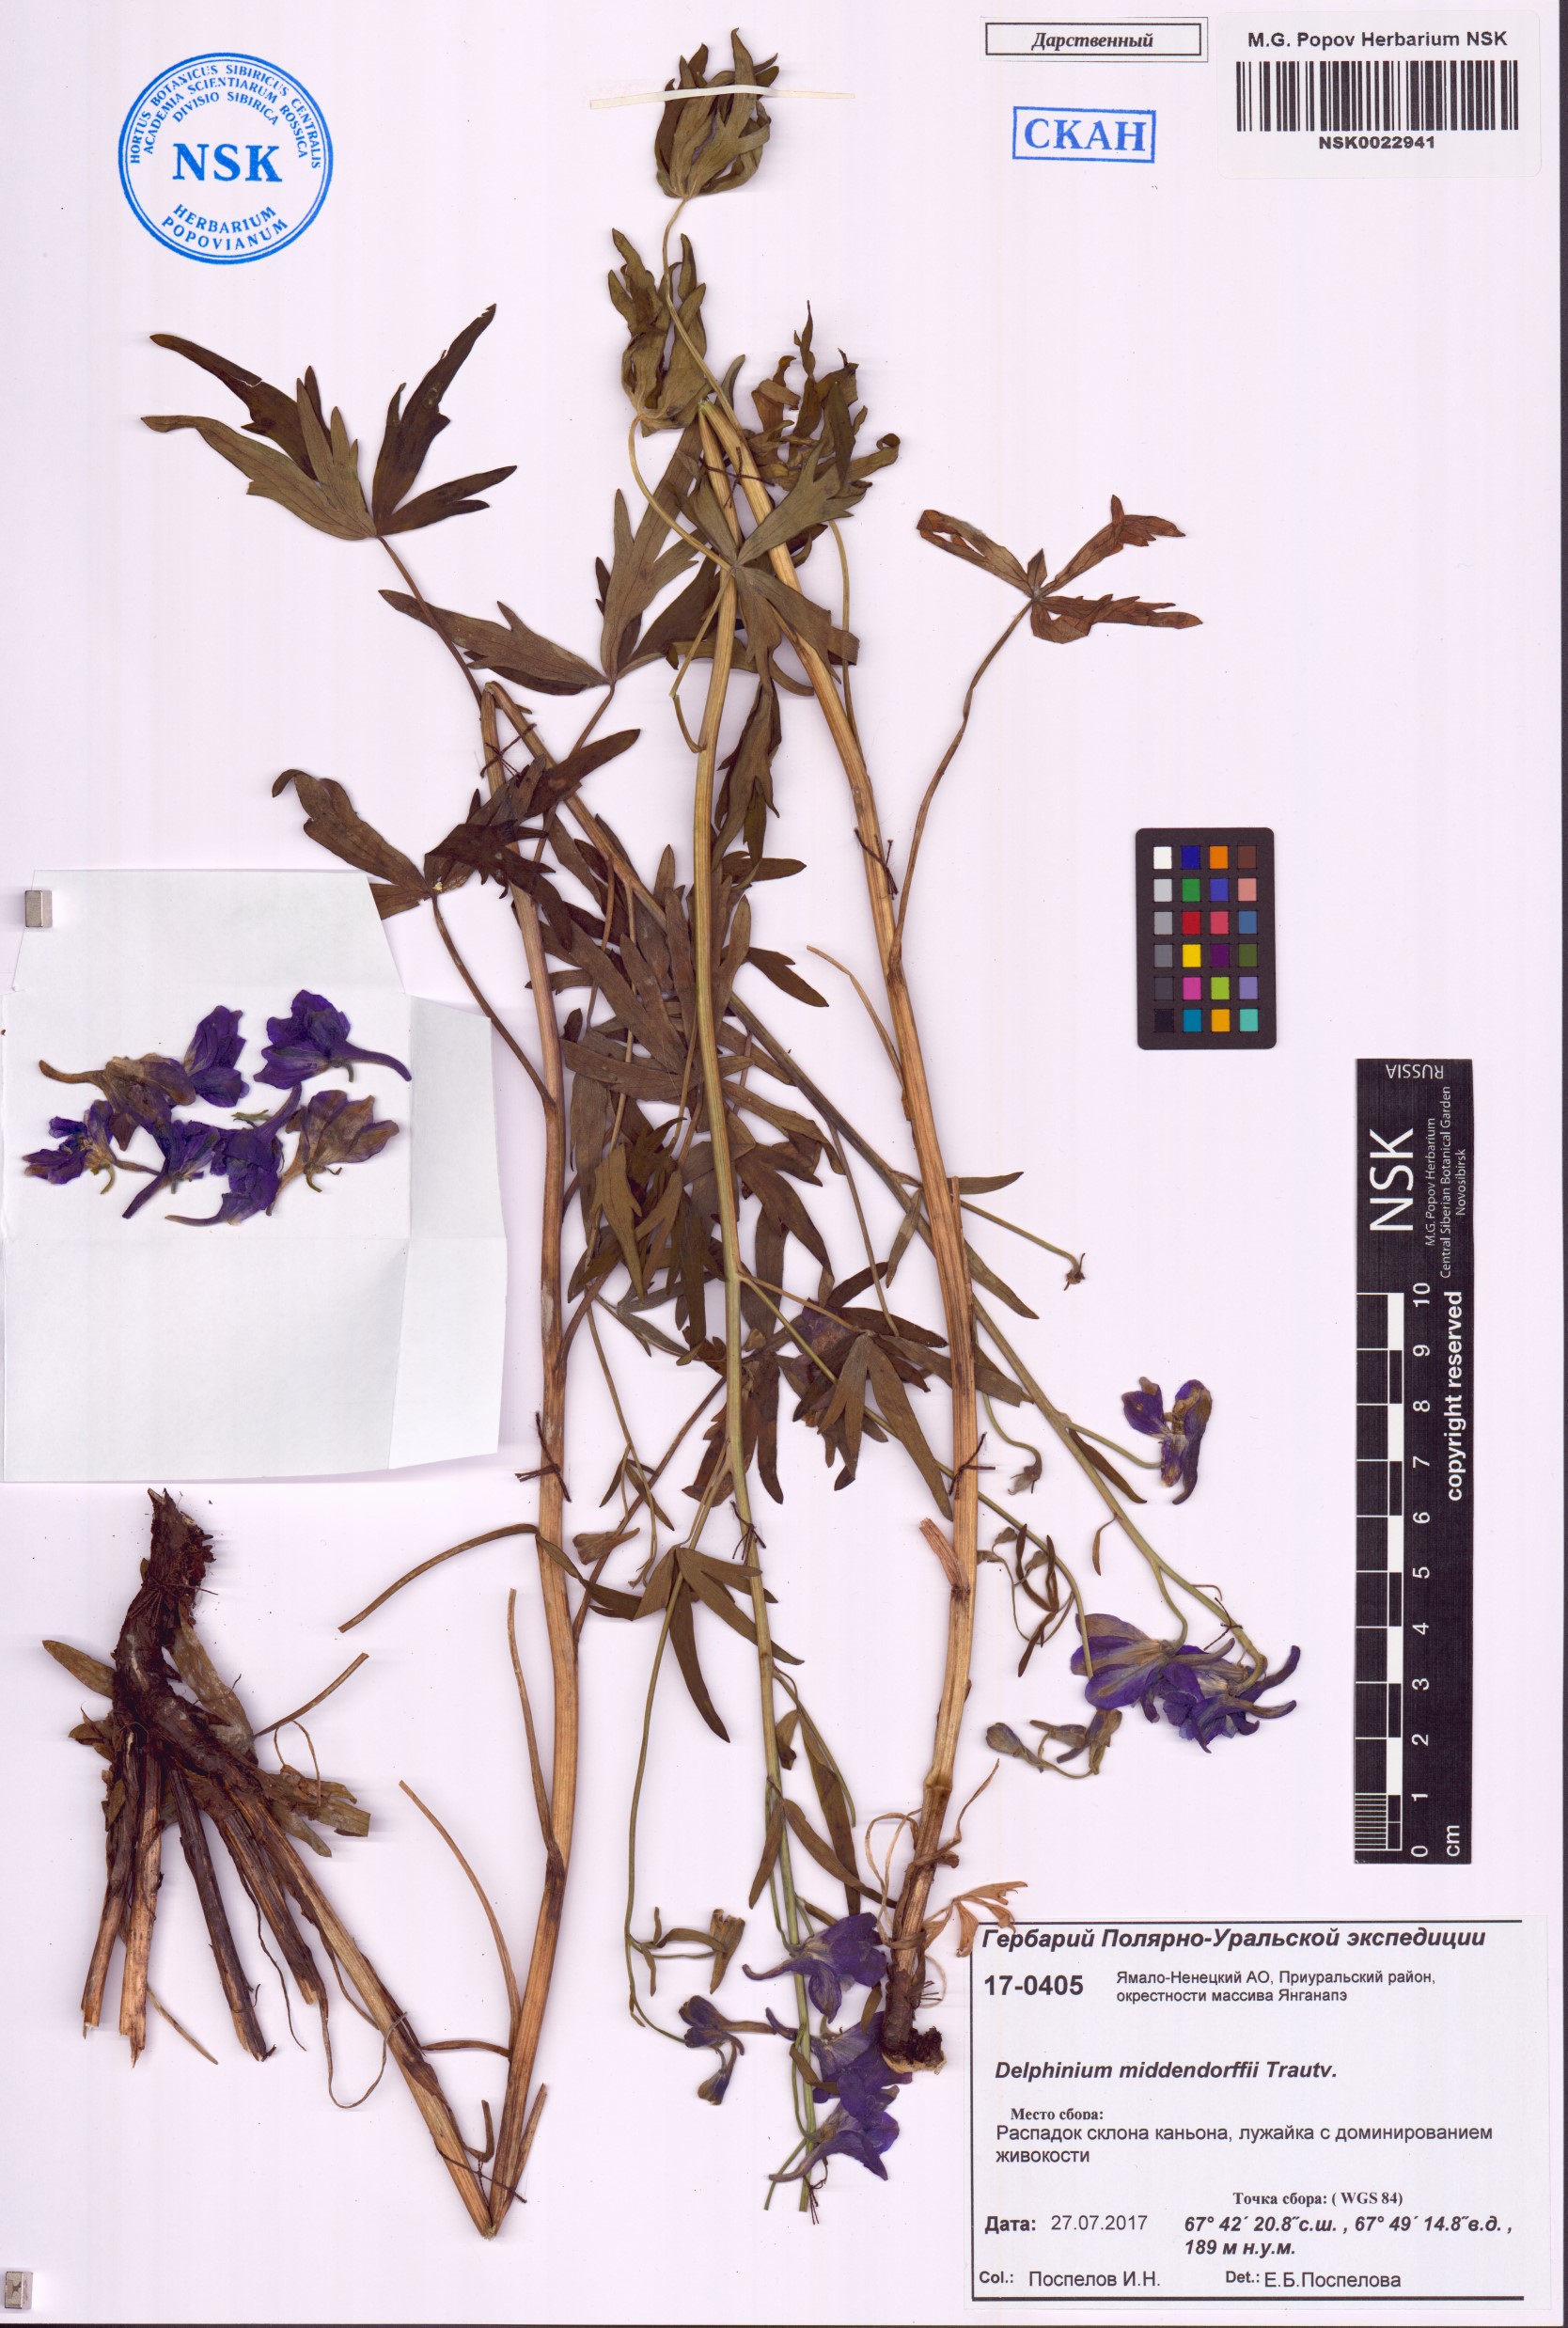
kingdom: Plantae
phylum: Tracheophyta
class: Magnoliopsida
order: Ranunculales
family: Ranunculaceae
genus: Delphinium
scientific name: Delphinium cheilanthum
